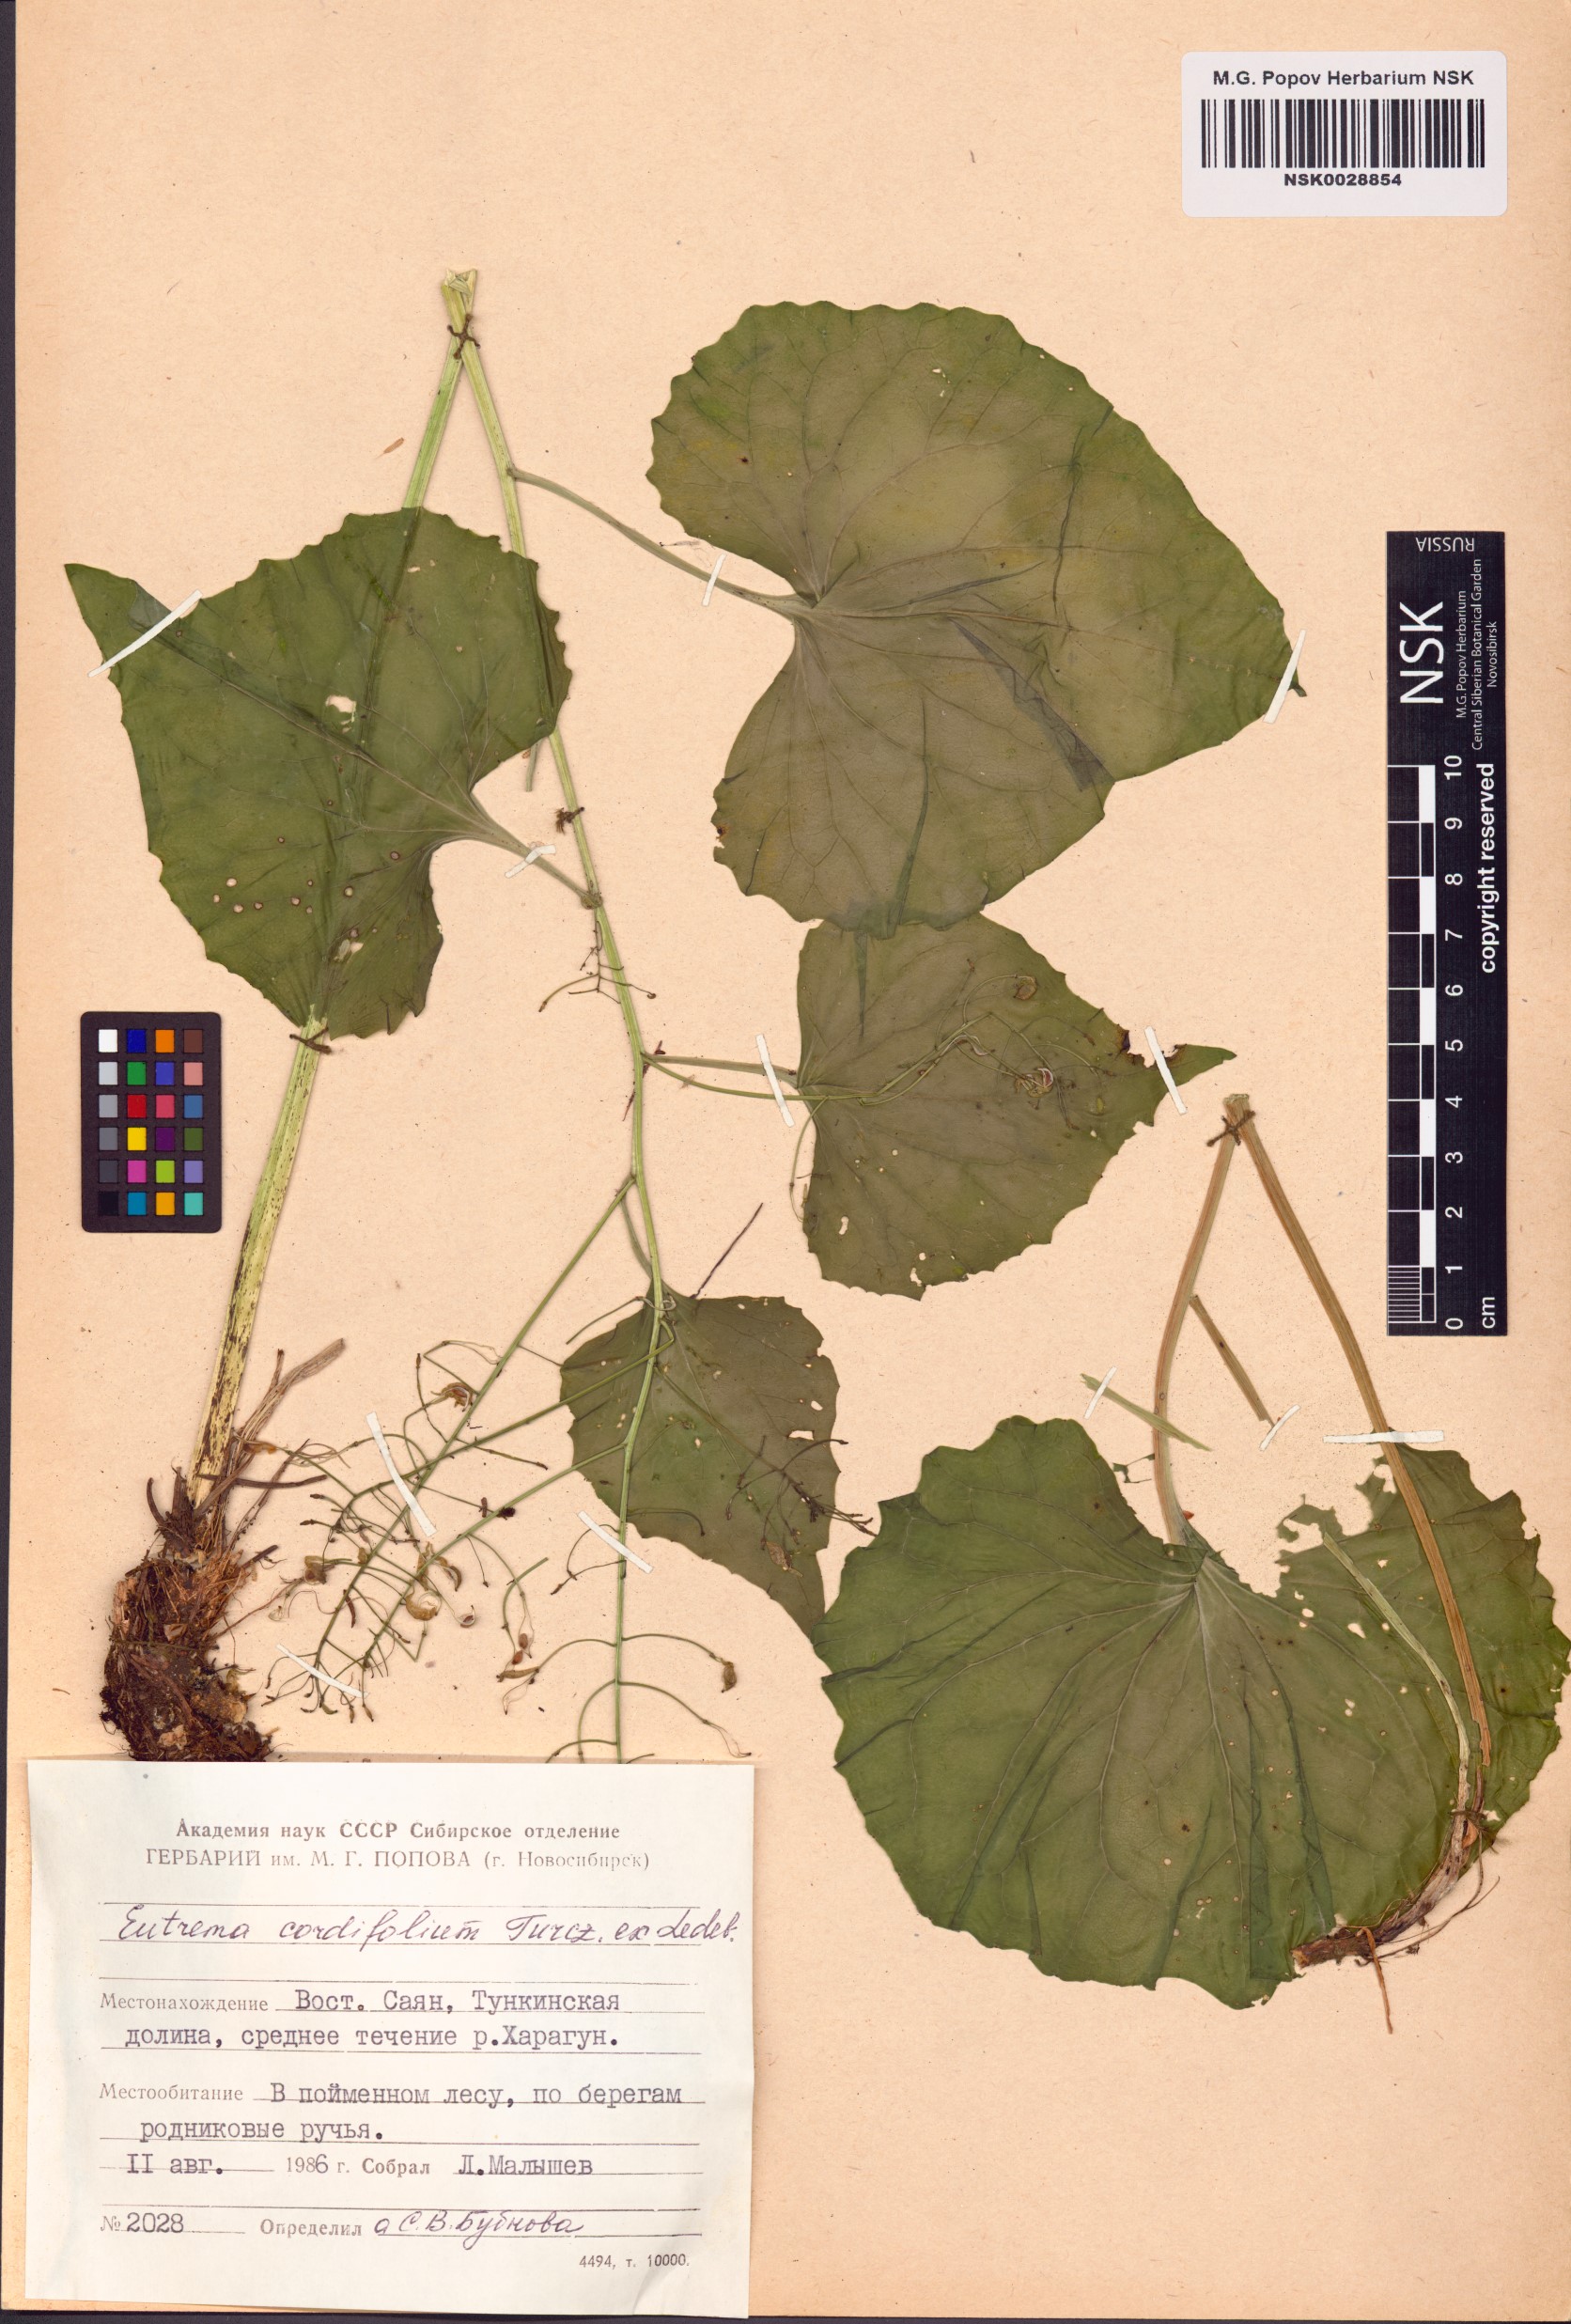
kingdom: Plantae
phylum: Tracheophyta
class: Magnoliopsida
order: Brassicales
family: Brassicaceae
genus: Eutrema
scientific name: Eutrema cordifolium
